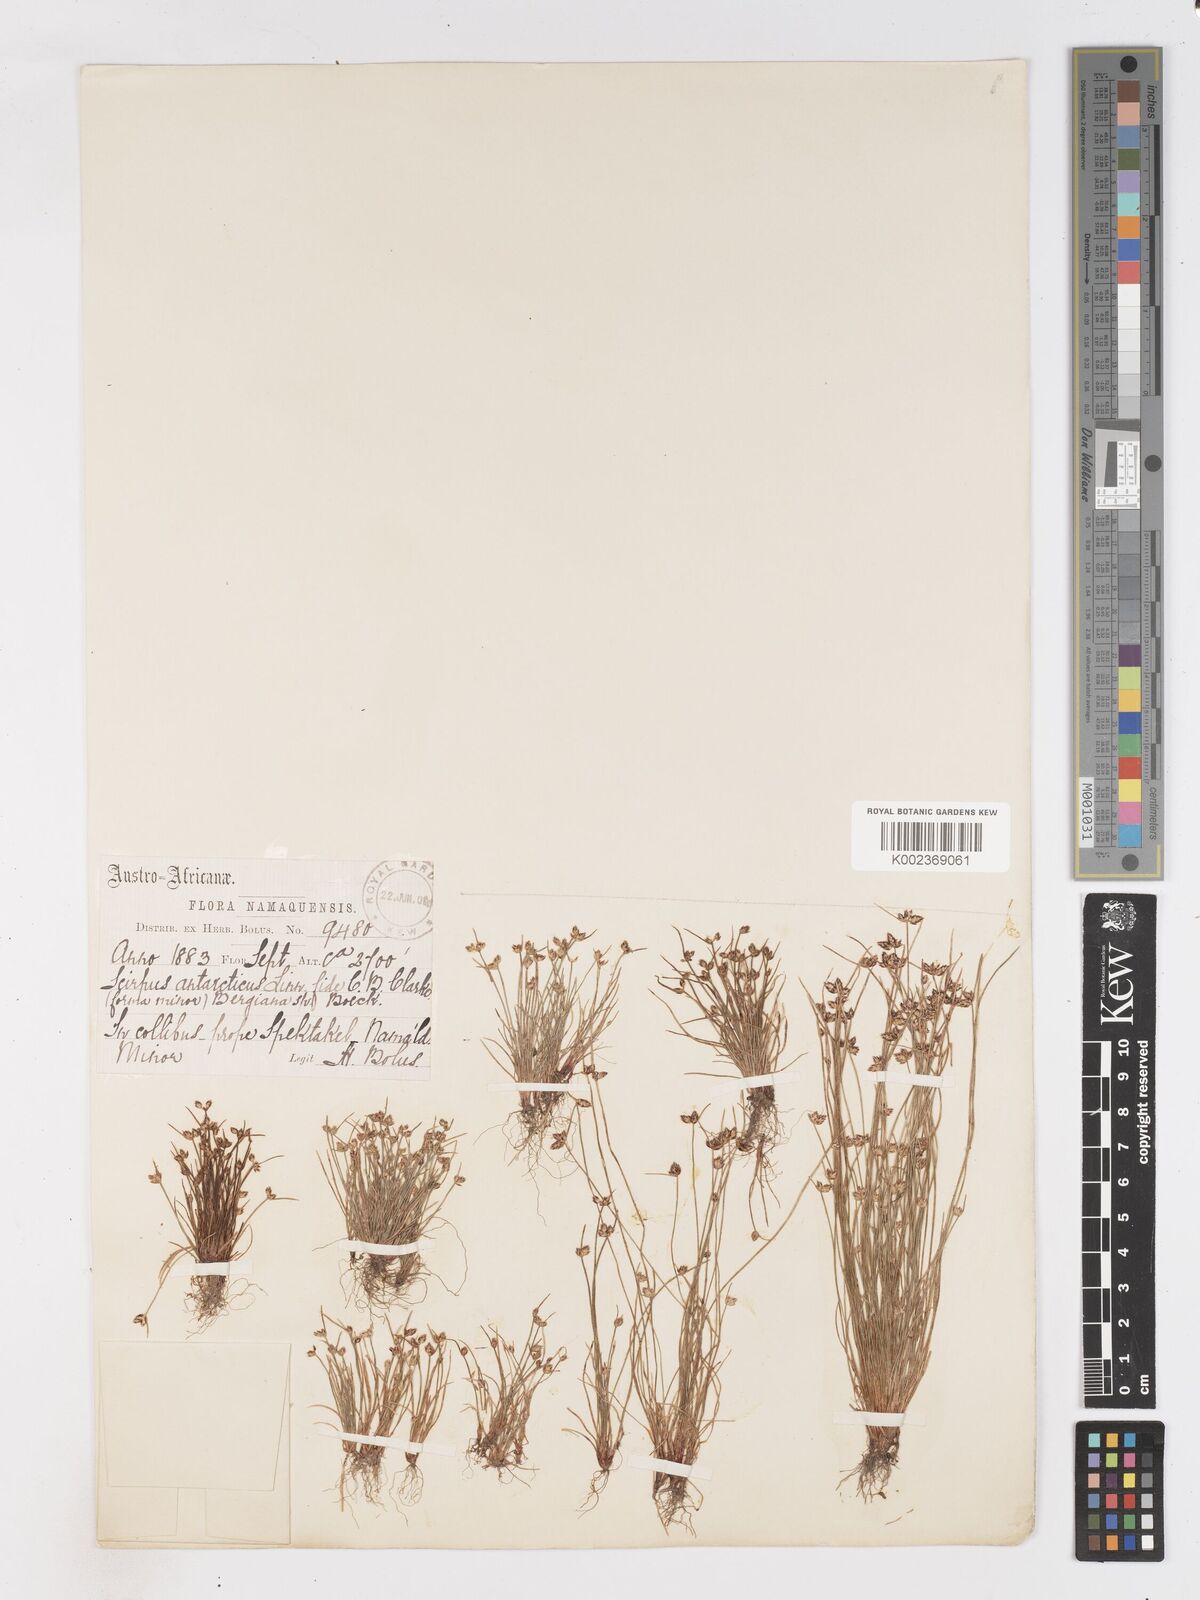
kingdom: Plantae
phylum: Tracheophyta
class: Liliopsida
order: Poales
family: Cyperaceae
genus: Isolepis
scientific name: Isolepis diabolica
